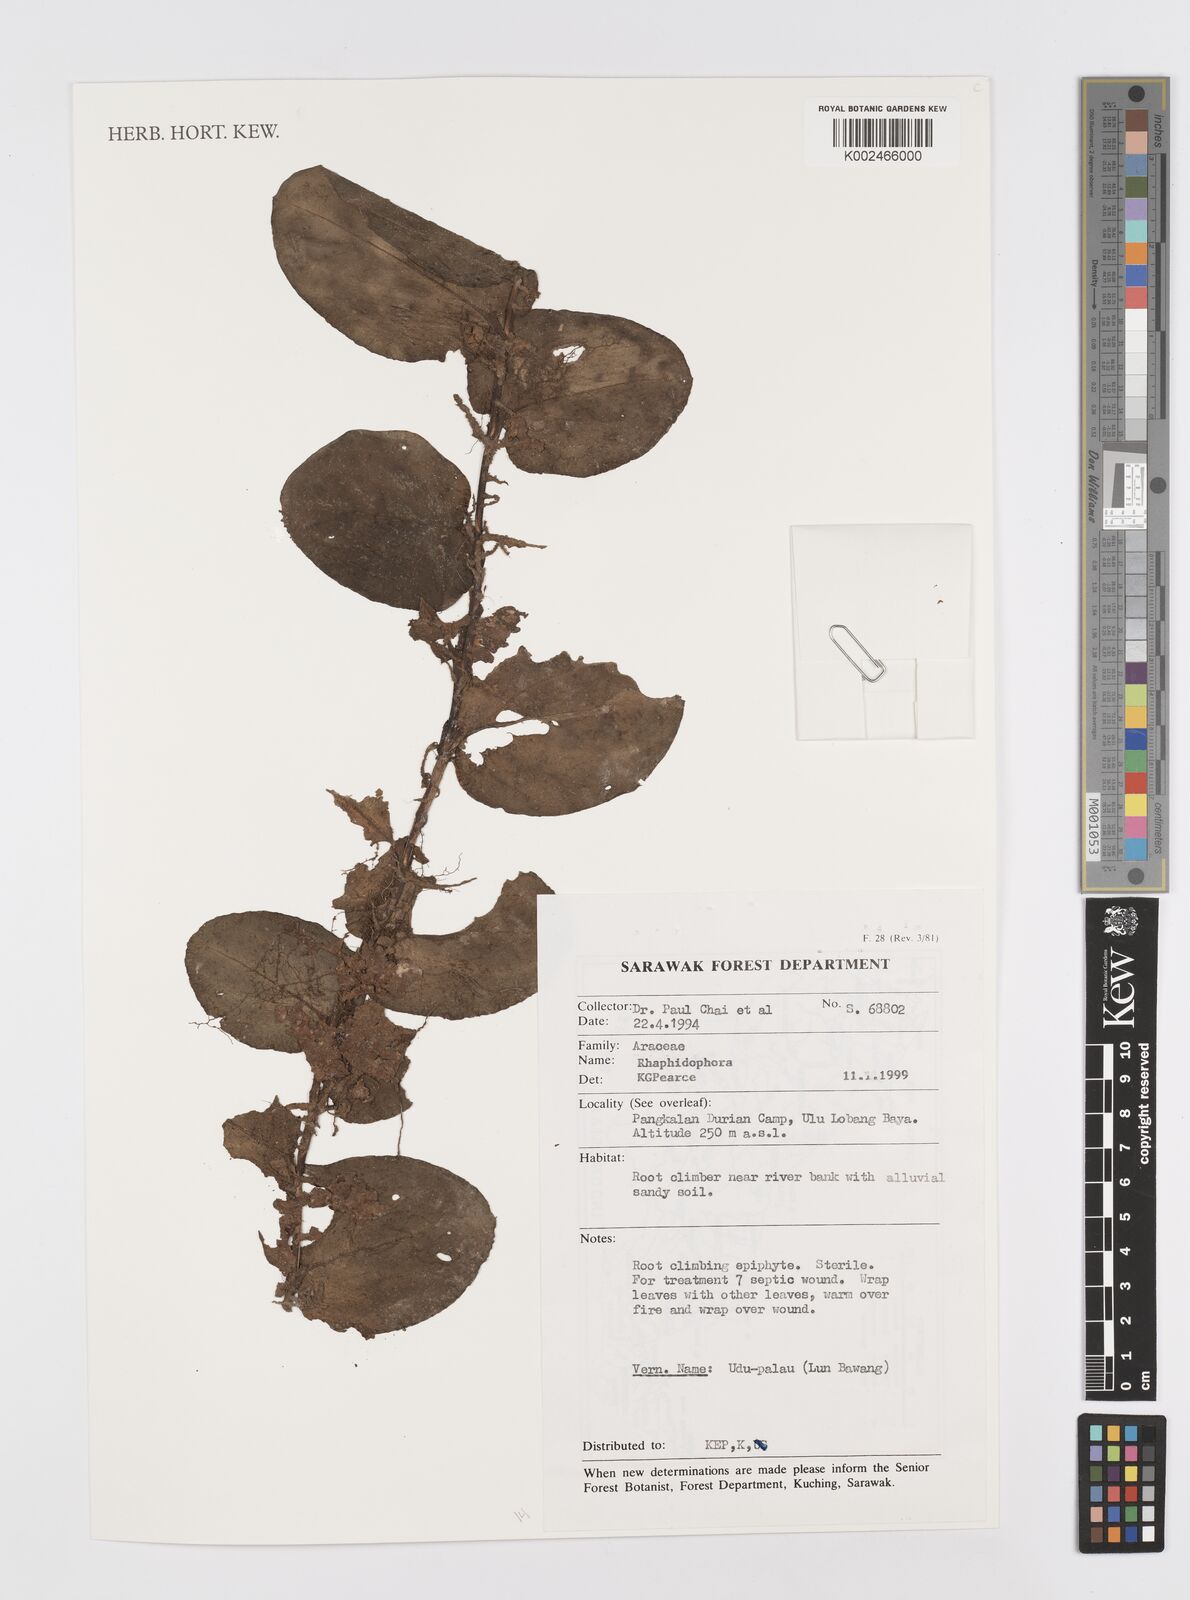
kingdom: Plantae
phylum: Tracheophyta
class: Liliopsida
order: Alismatales
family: Araceae
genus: Rhaphidophora
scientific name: Rhaphidophora
